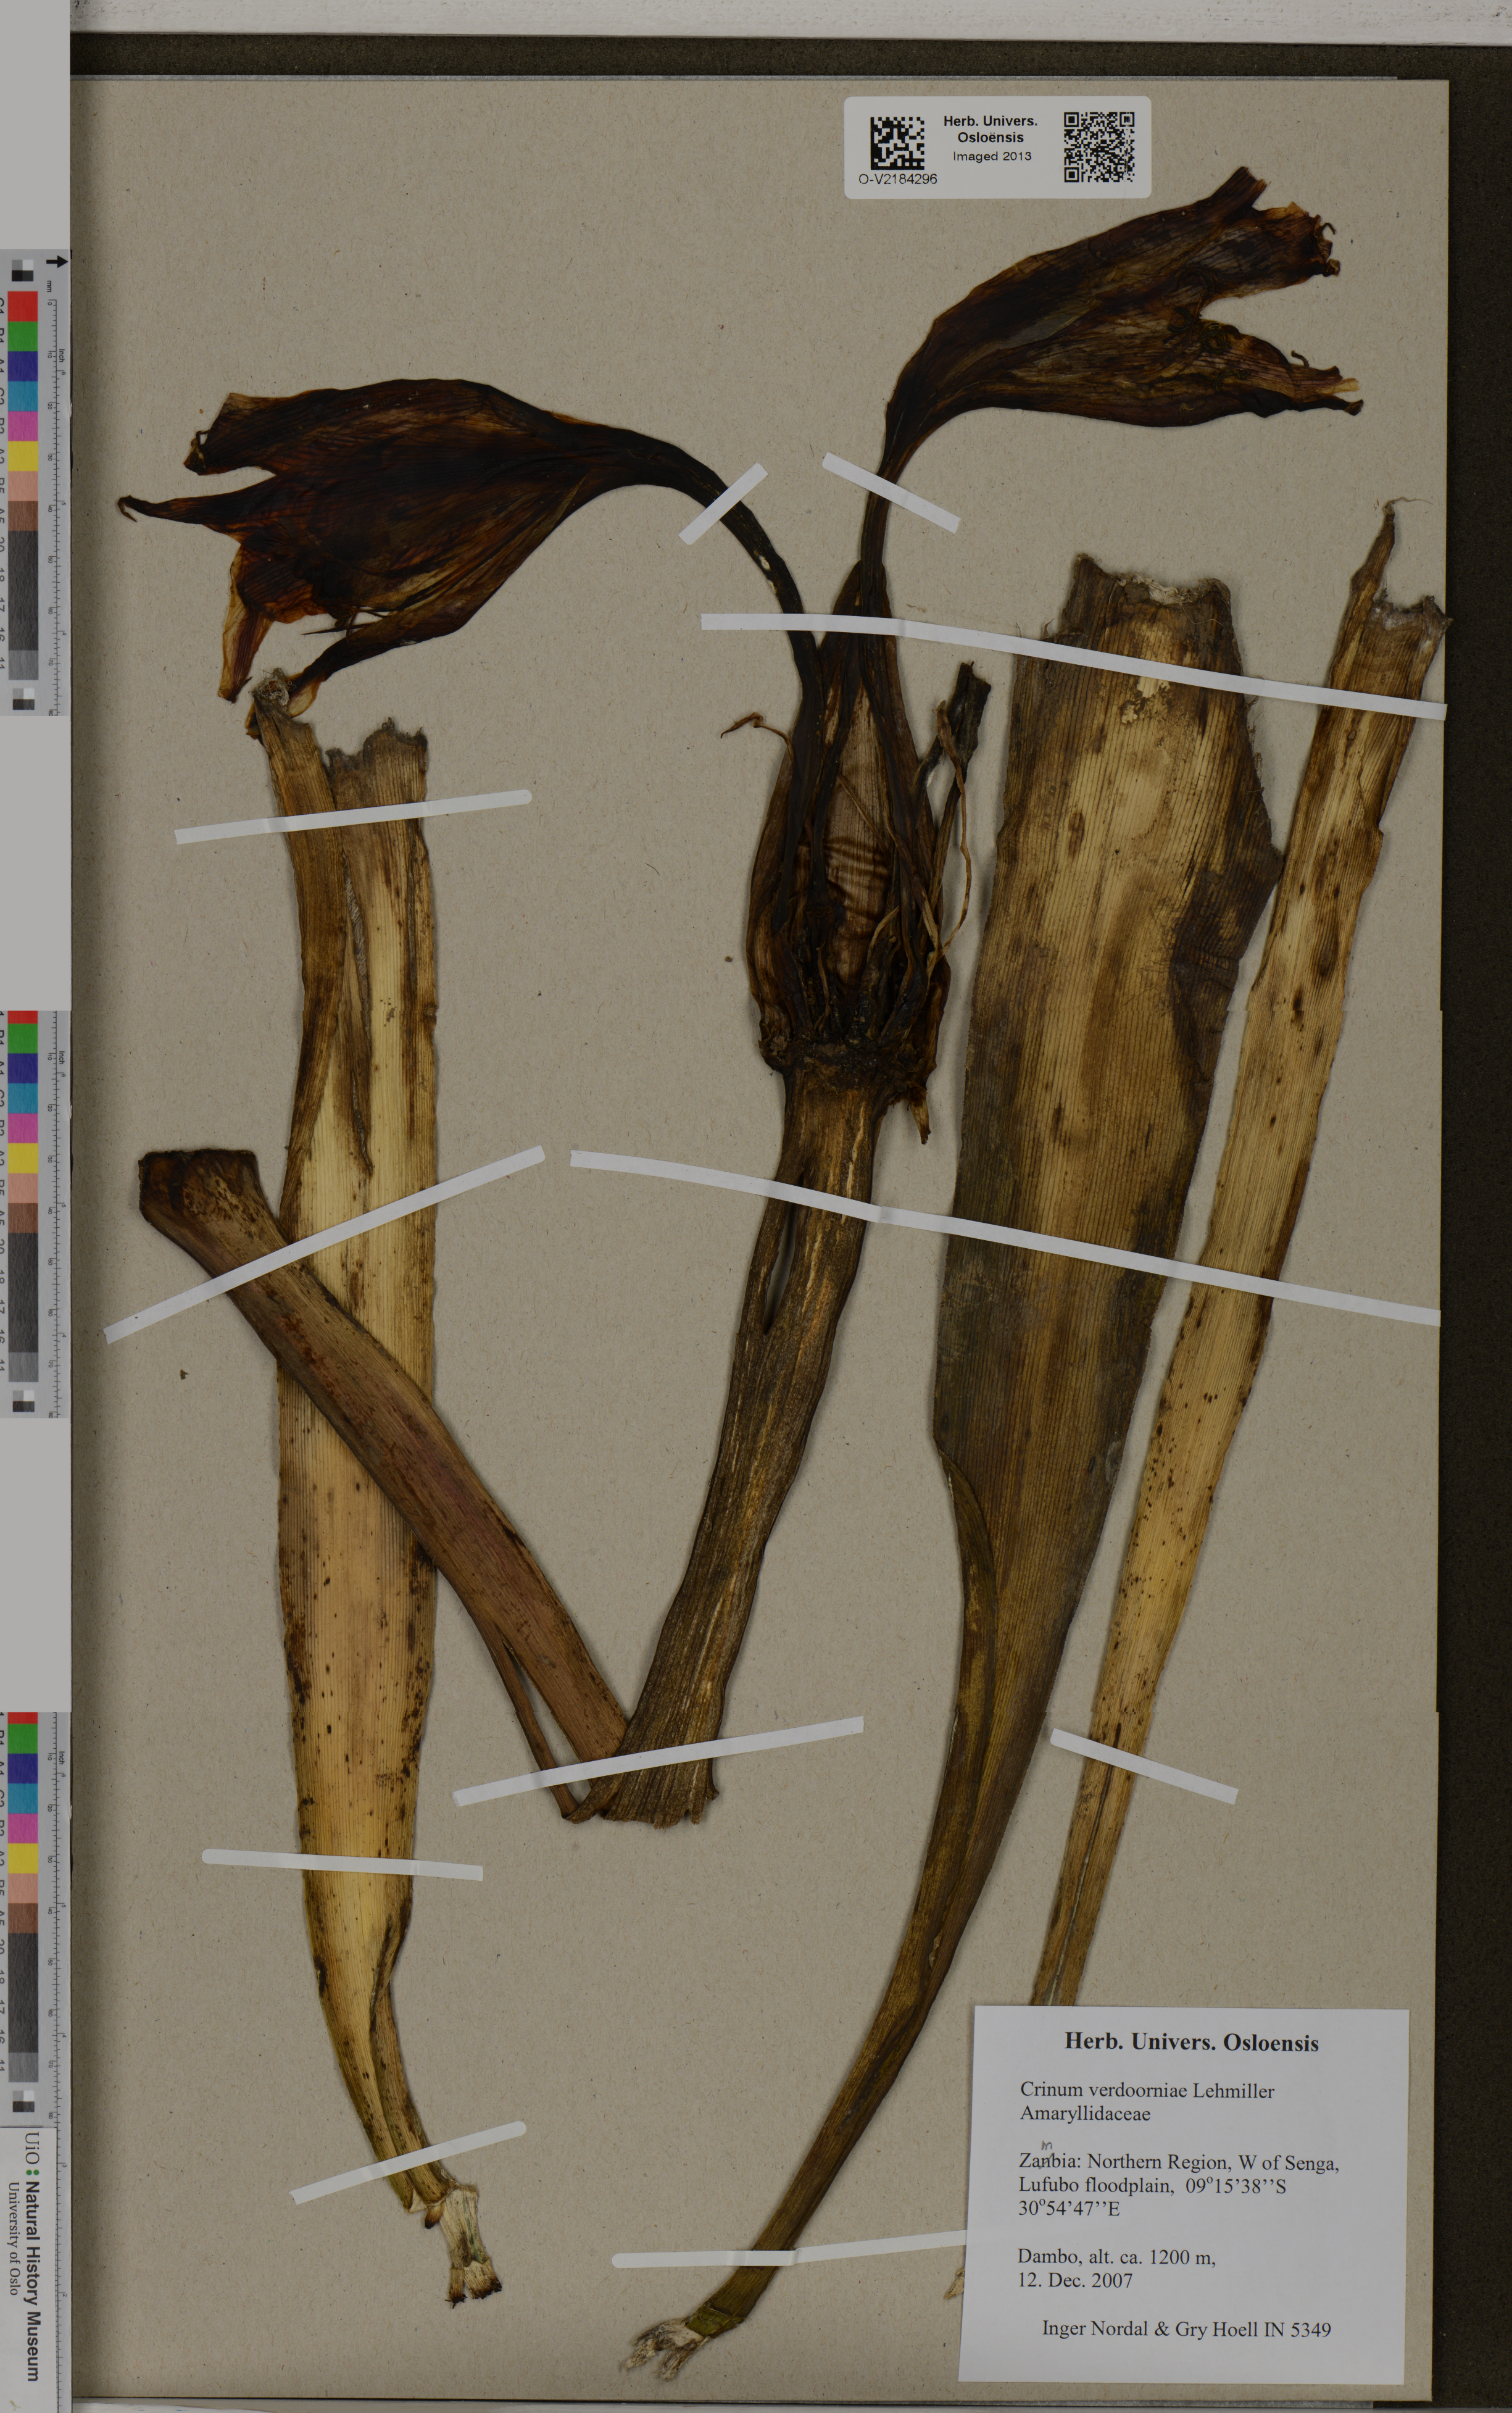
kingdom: Plantae
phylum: Tracheophyta
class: Liliopsida
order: Asparagales
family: Amaryllidaceae
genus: Crinum
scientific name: Crinum verdoorniae
